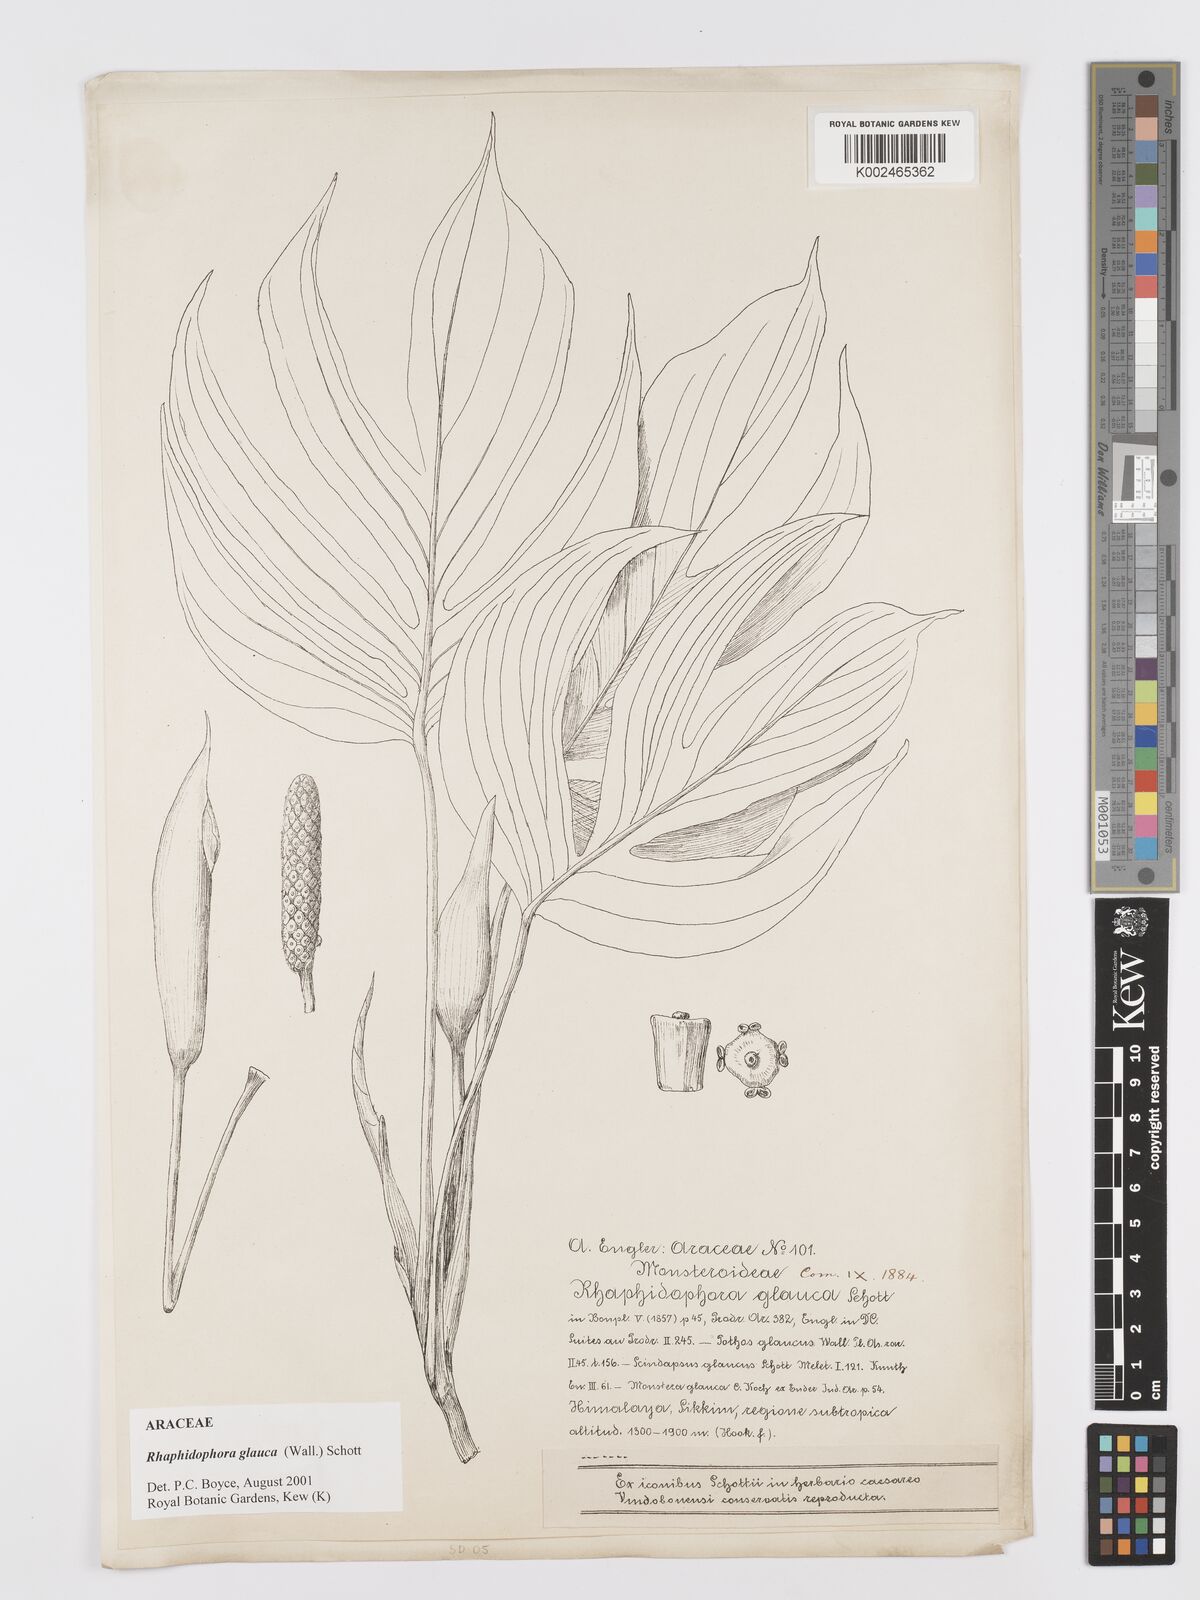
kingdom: Plantae
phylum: Tracheophyta
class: Liliopsida
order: Alismatales
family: Araceae
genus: Rhaphidophora
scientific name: Rhaphidophora glauca
